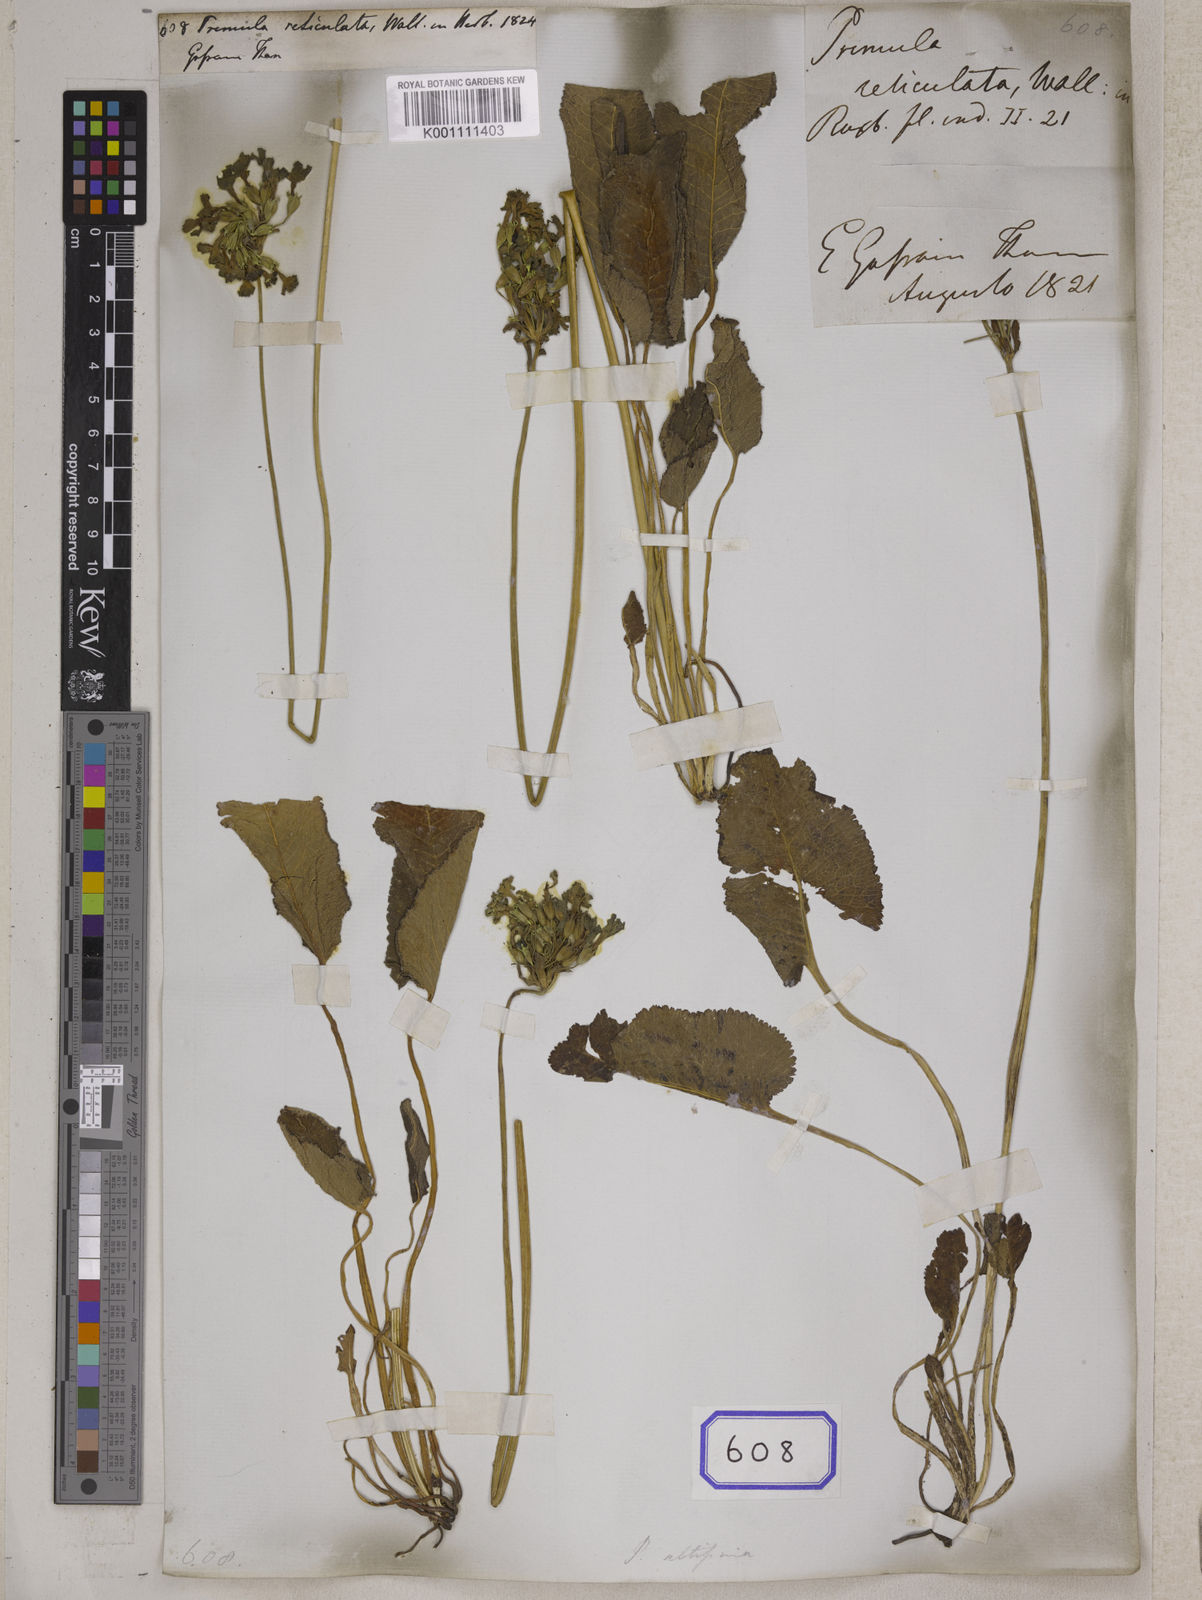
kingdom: Plantae
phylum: Tracheophyta
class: Magnoliopsida
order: Ericales
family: Primulaceae
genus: Primula
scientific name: Primula reticulata
